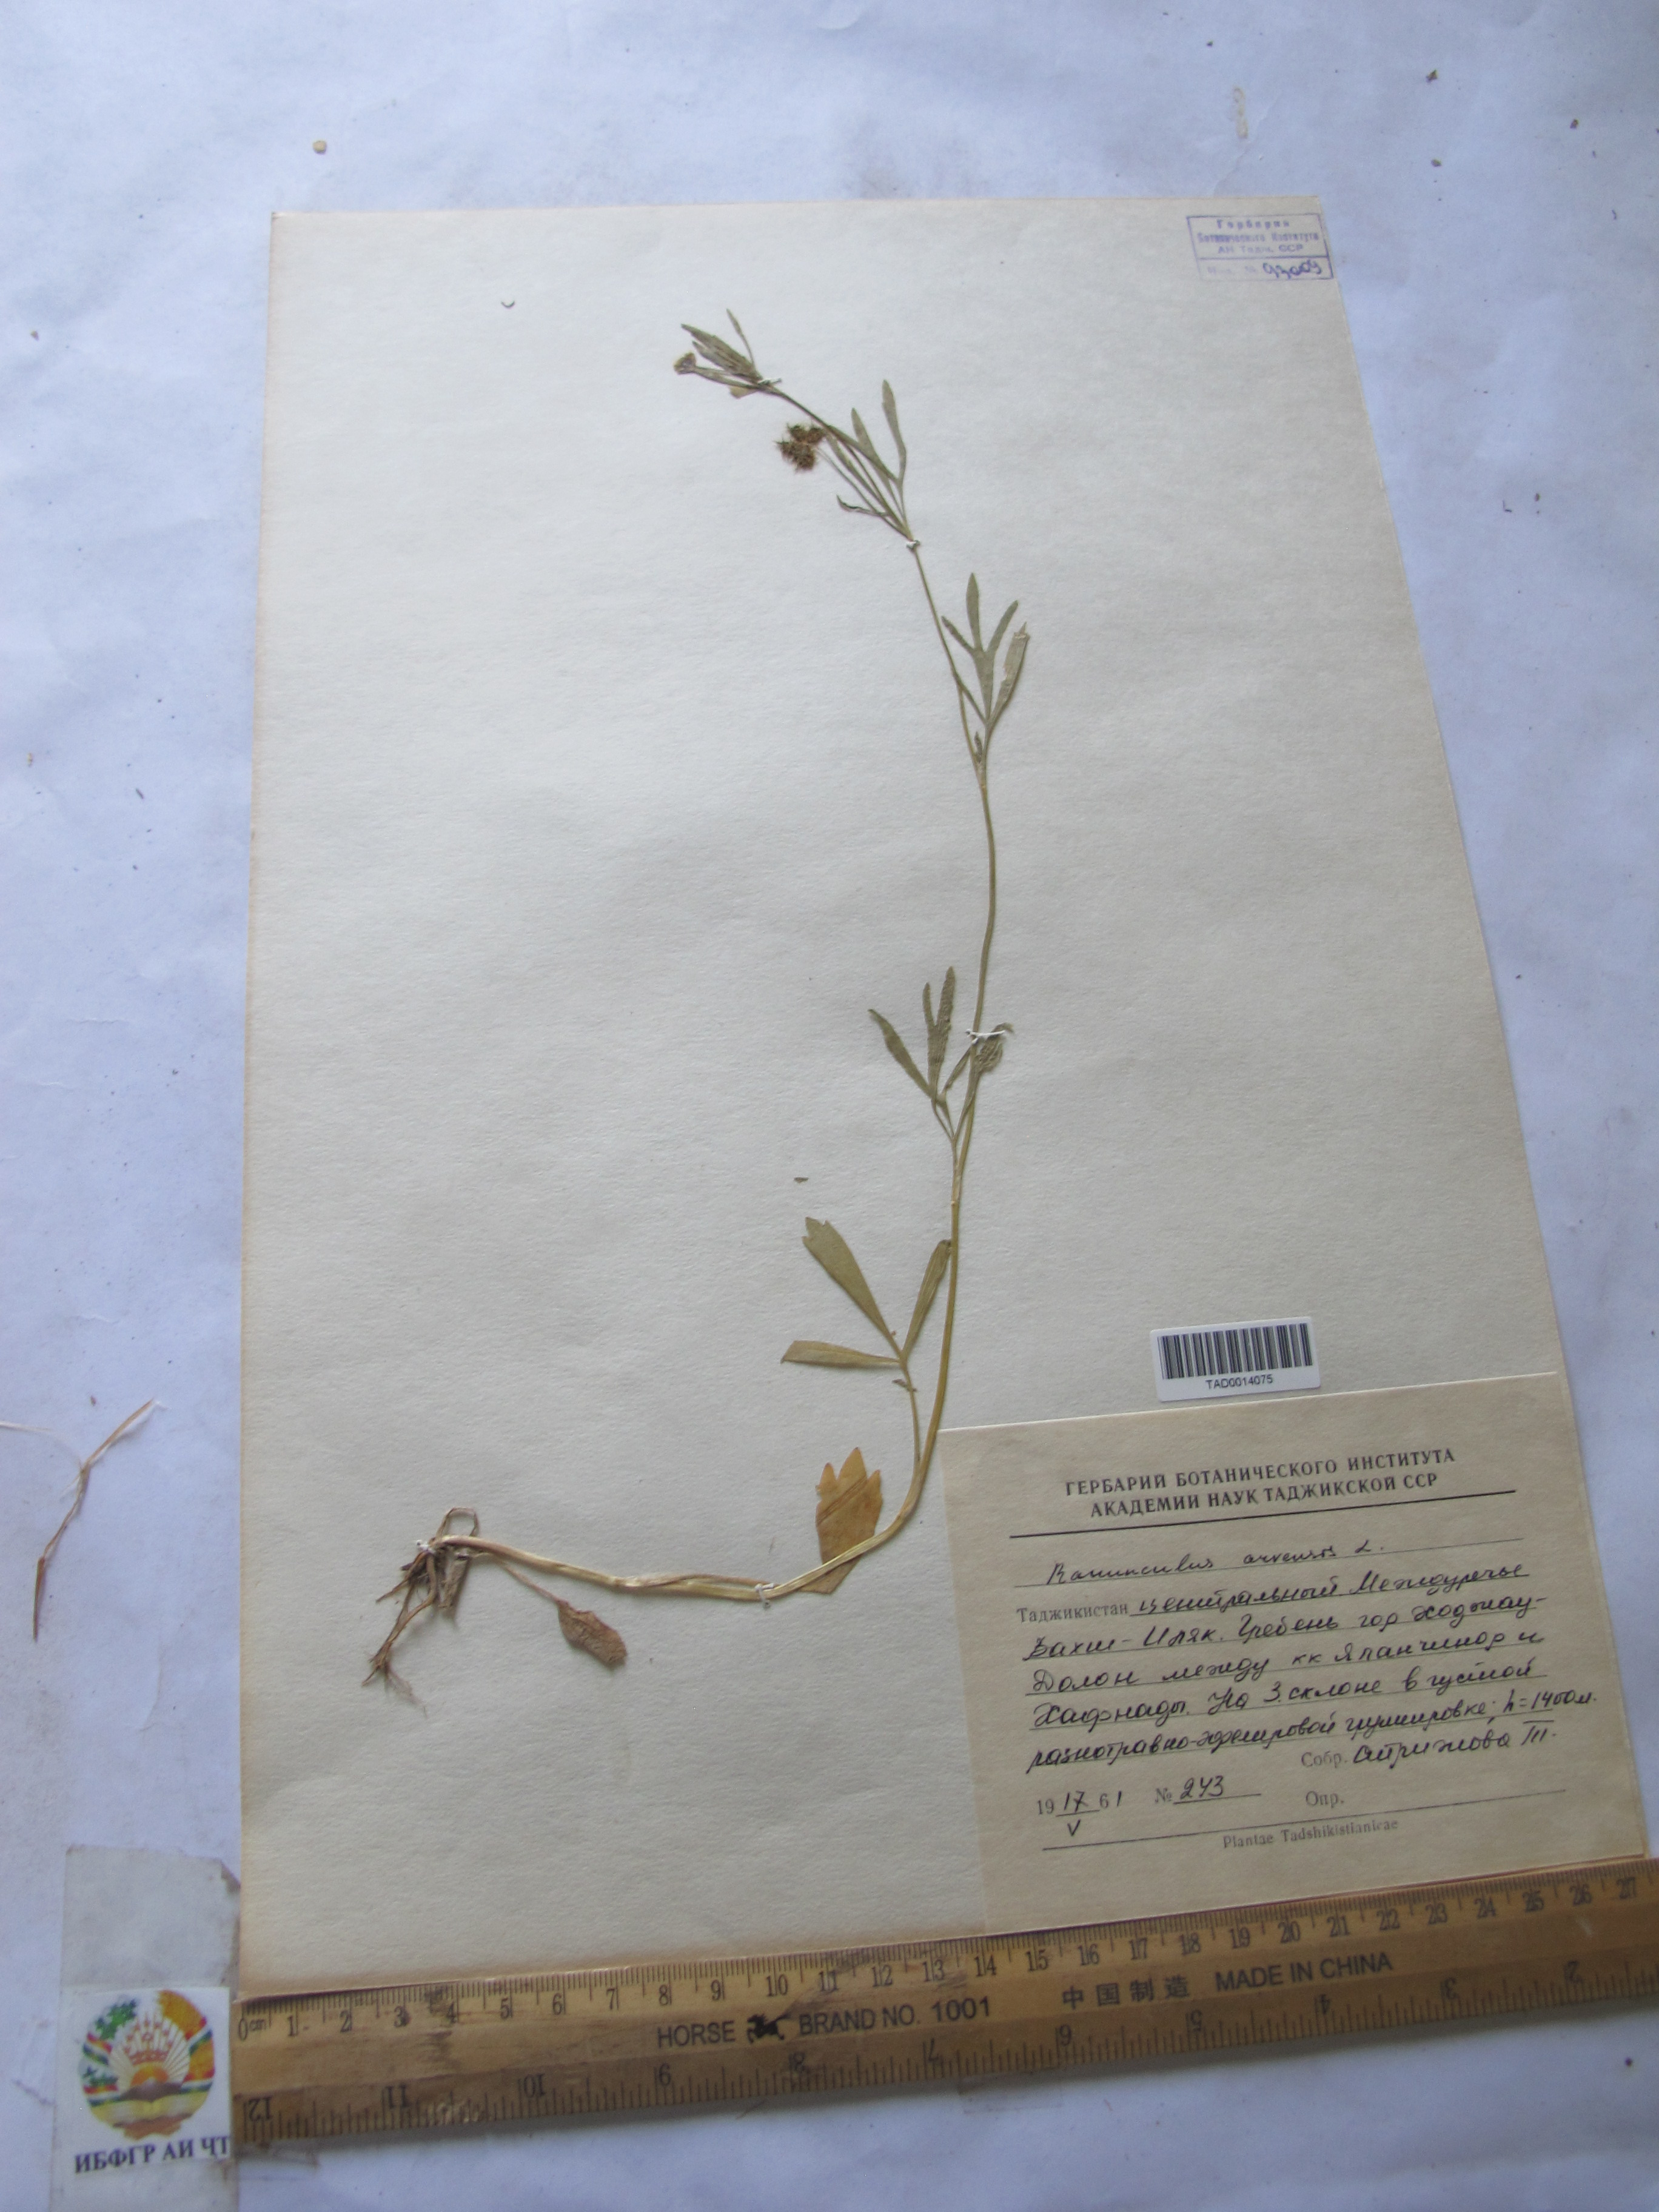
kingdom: Plantae
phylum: Tracheophyta
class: Magnoliopsida
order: Ranunculales
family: Ranunculaceae
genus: Ranunculus
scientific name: Ranunculus arvensis
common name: Corn buttercup
